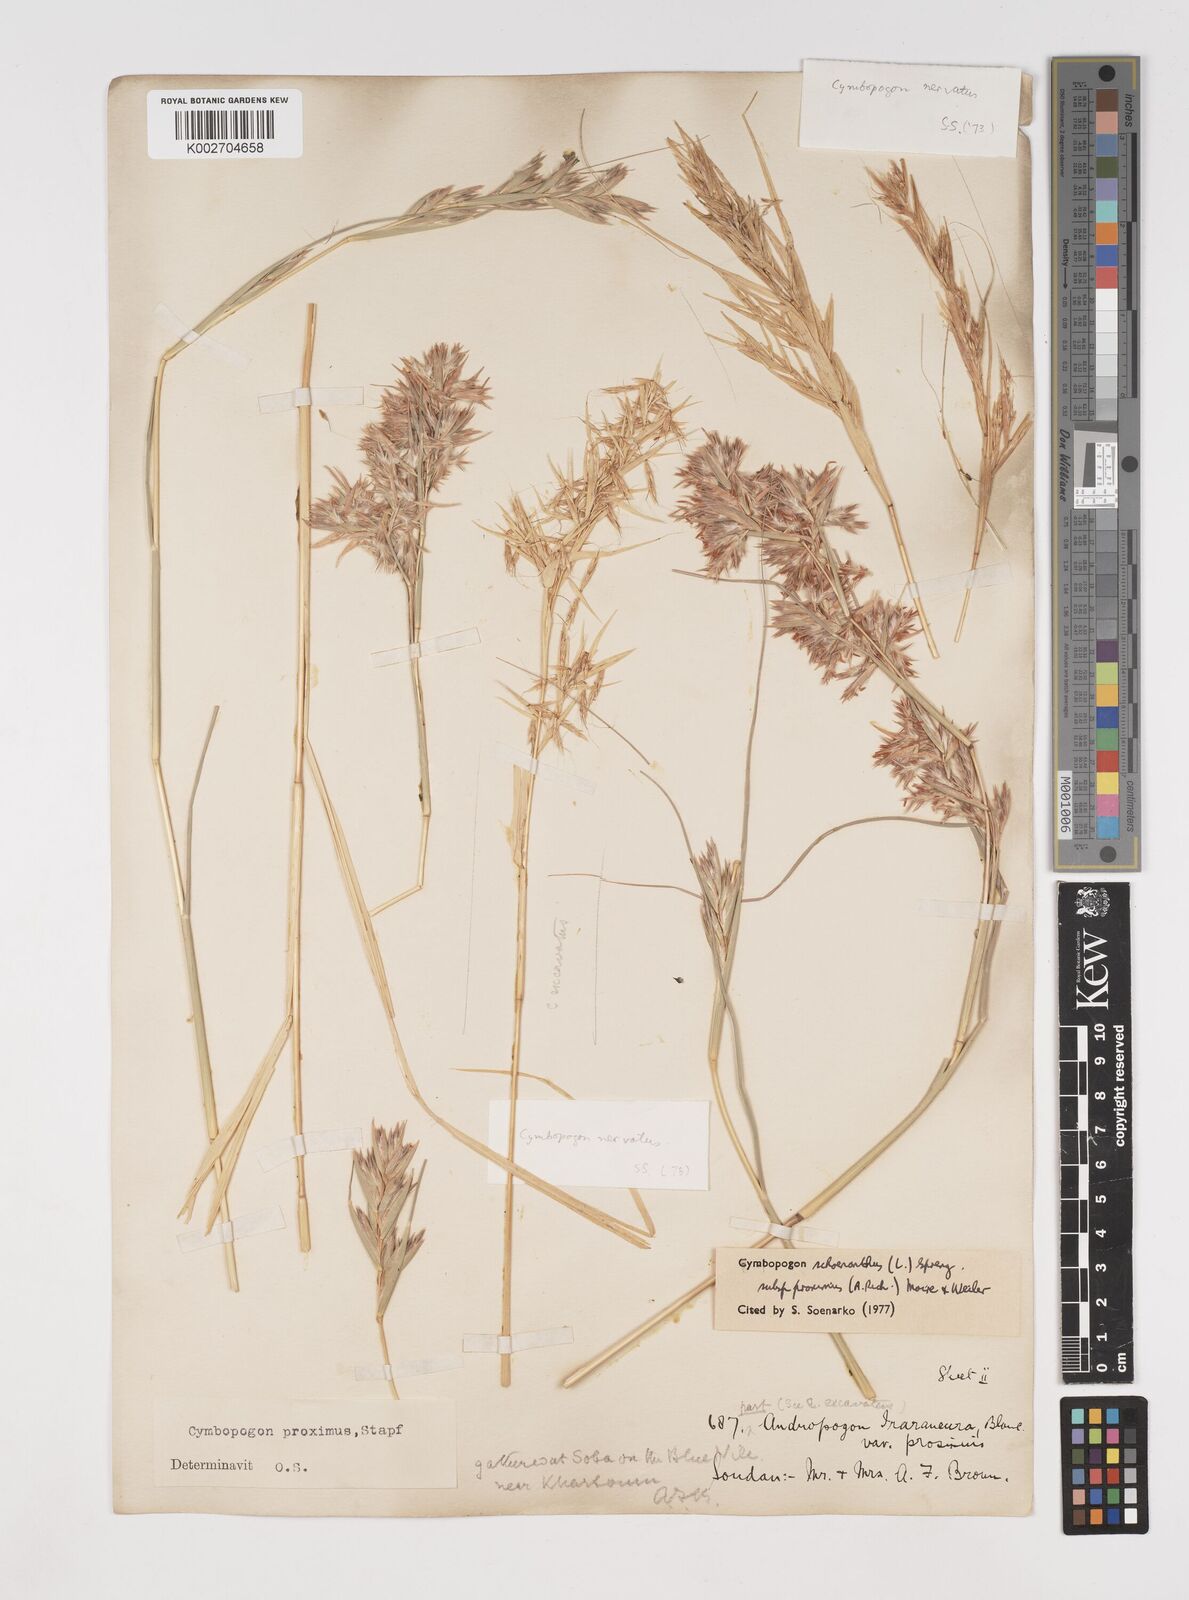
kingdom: Plantae
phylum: Tracheophyta
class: Liliopsida
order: Poales
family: Poaceae
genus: Cymbopogon
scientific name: Cymbopogon schoenanthus
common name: Geranium grass
